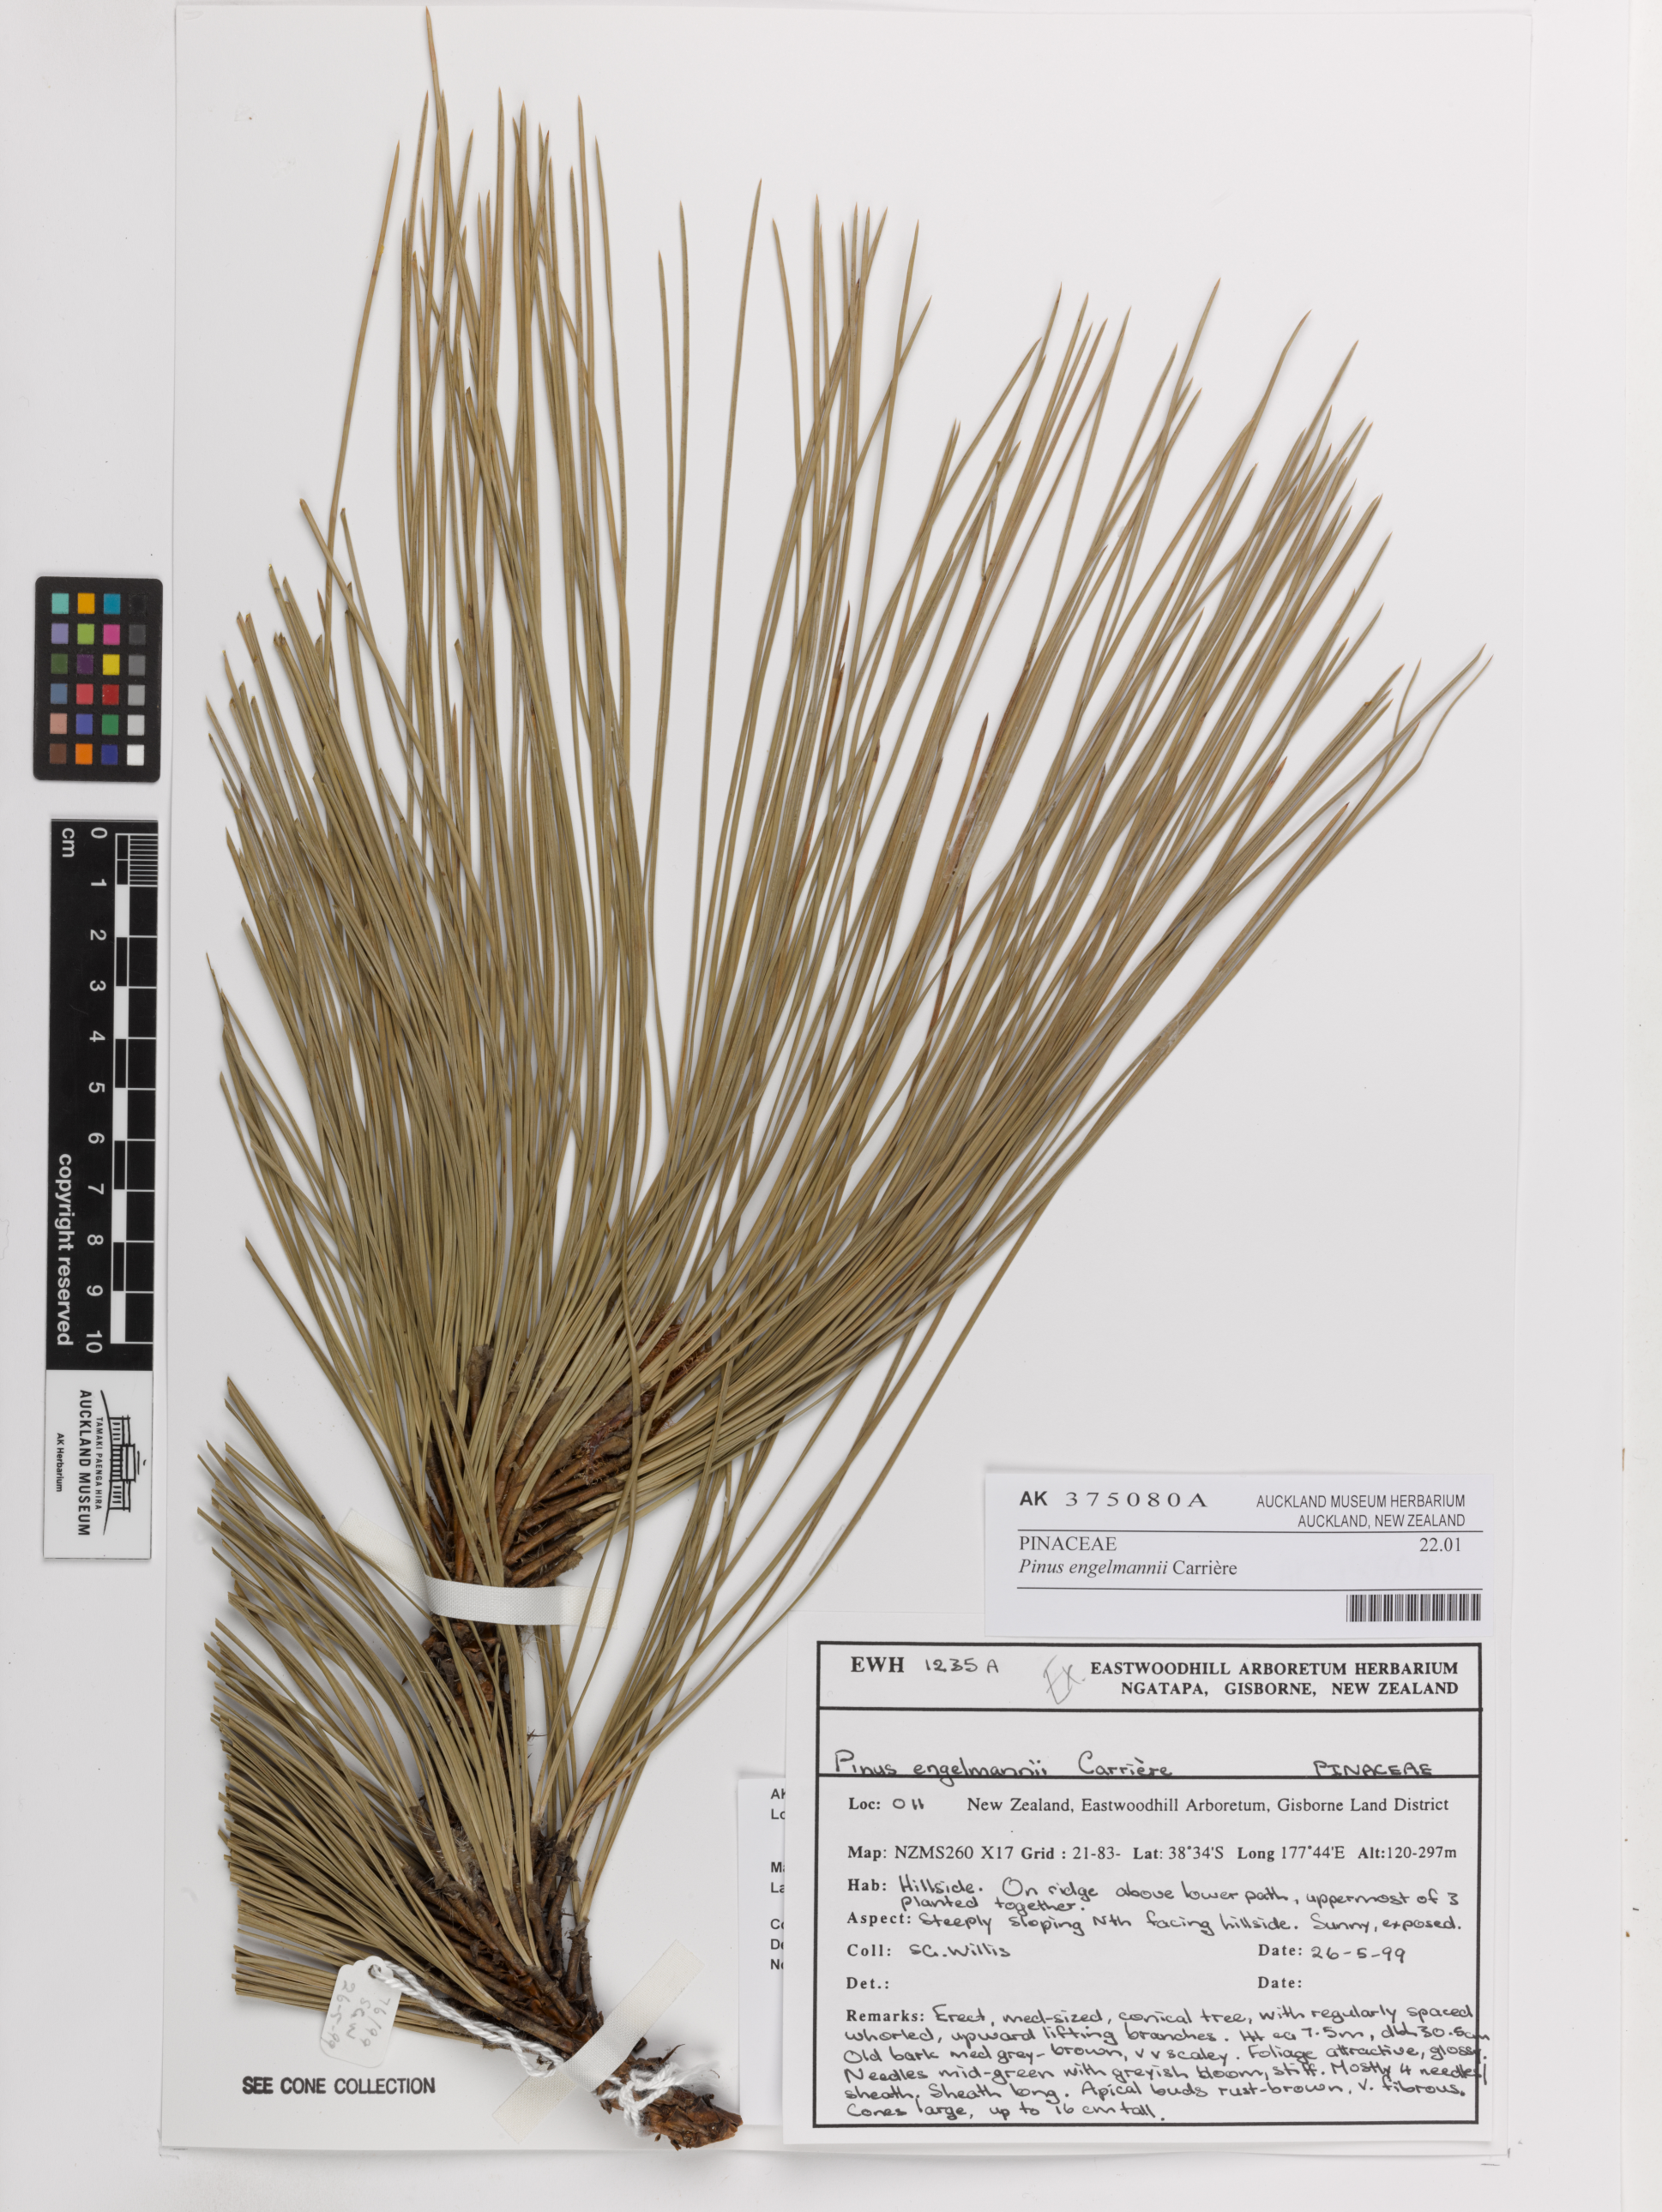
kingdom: Plantae
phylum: Tracheophyta
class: Pinopsida
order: Pinales
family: Pinaceae
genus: Pinus
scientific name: Pinus engelmannii
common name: Apache pine
